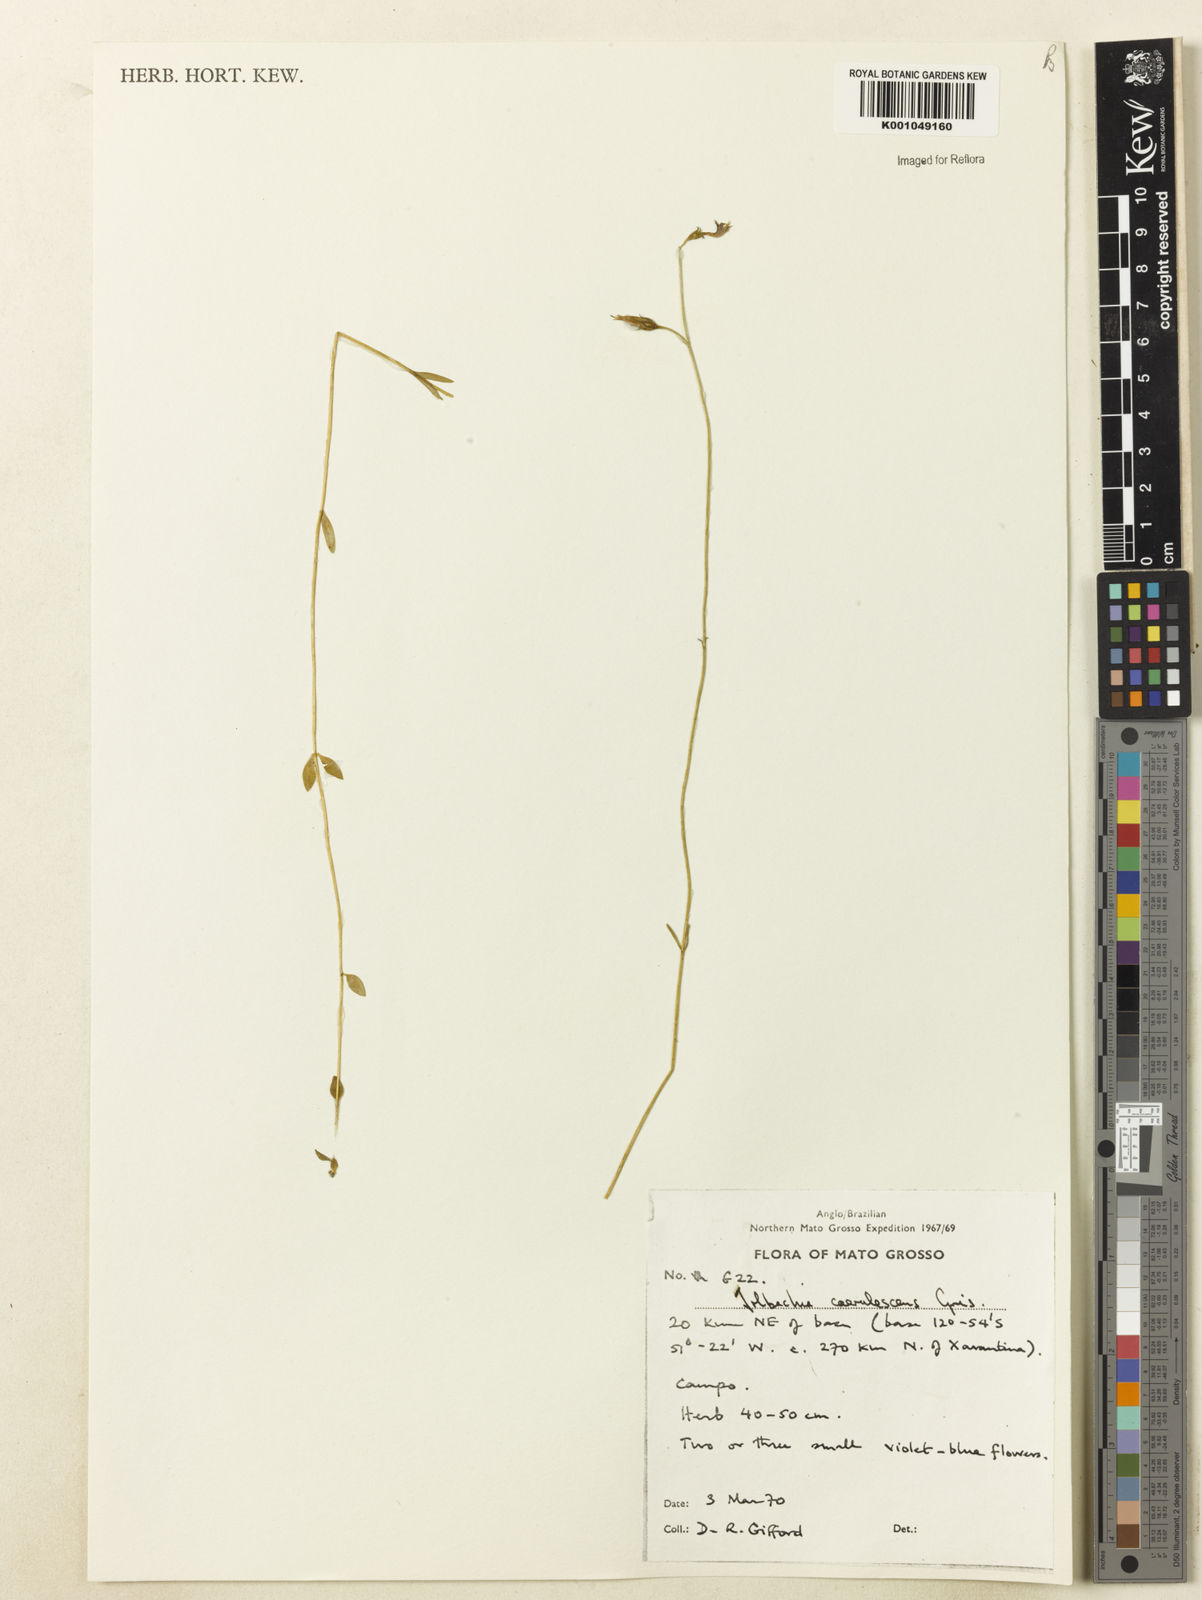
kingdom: Plantae
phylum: Tracheophyta
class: Magnoliopsida
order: Gentianales
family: Gentianaceae
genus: Tetrapollinia
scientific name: Tetrapollinia caerulescens
